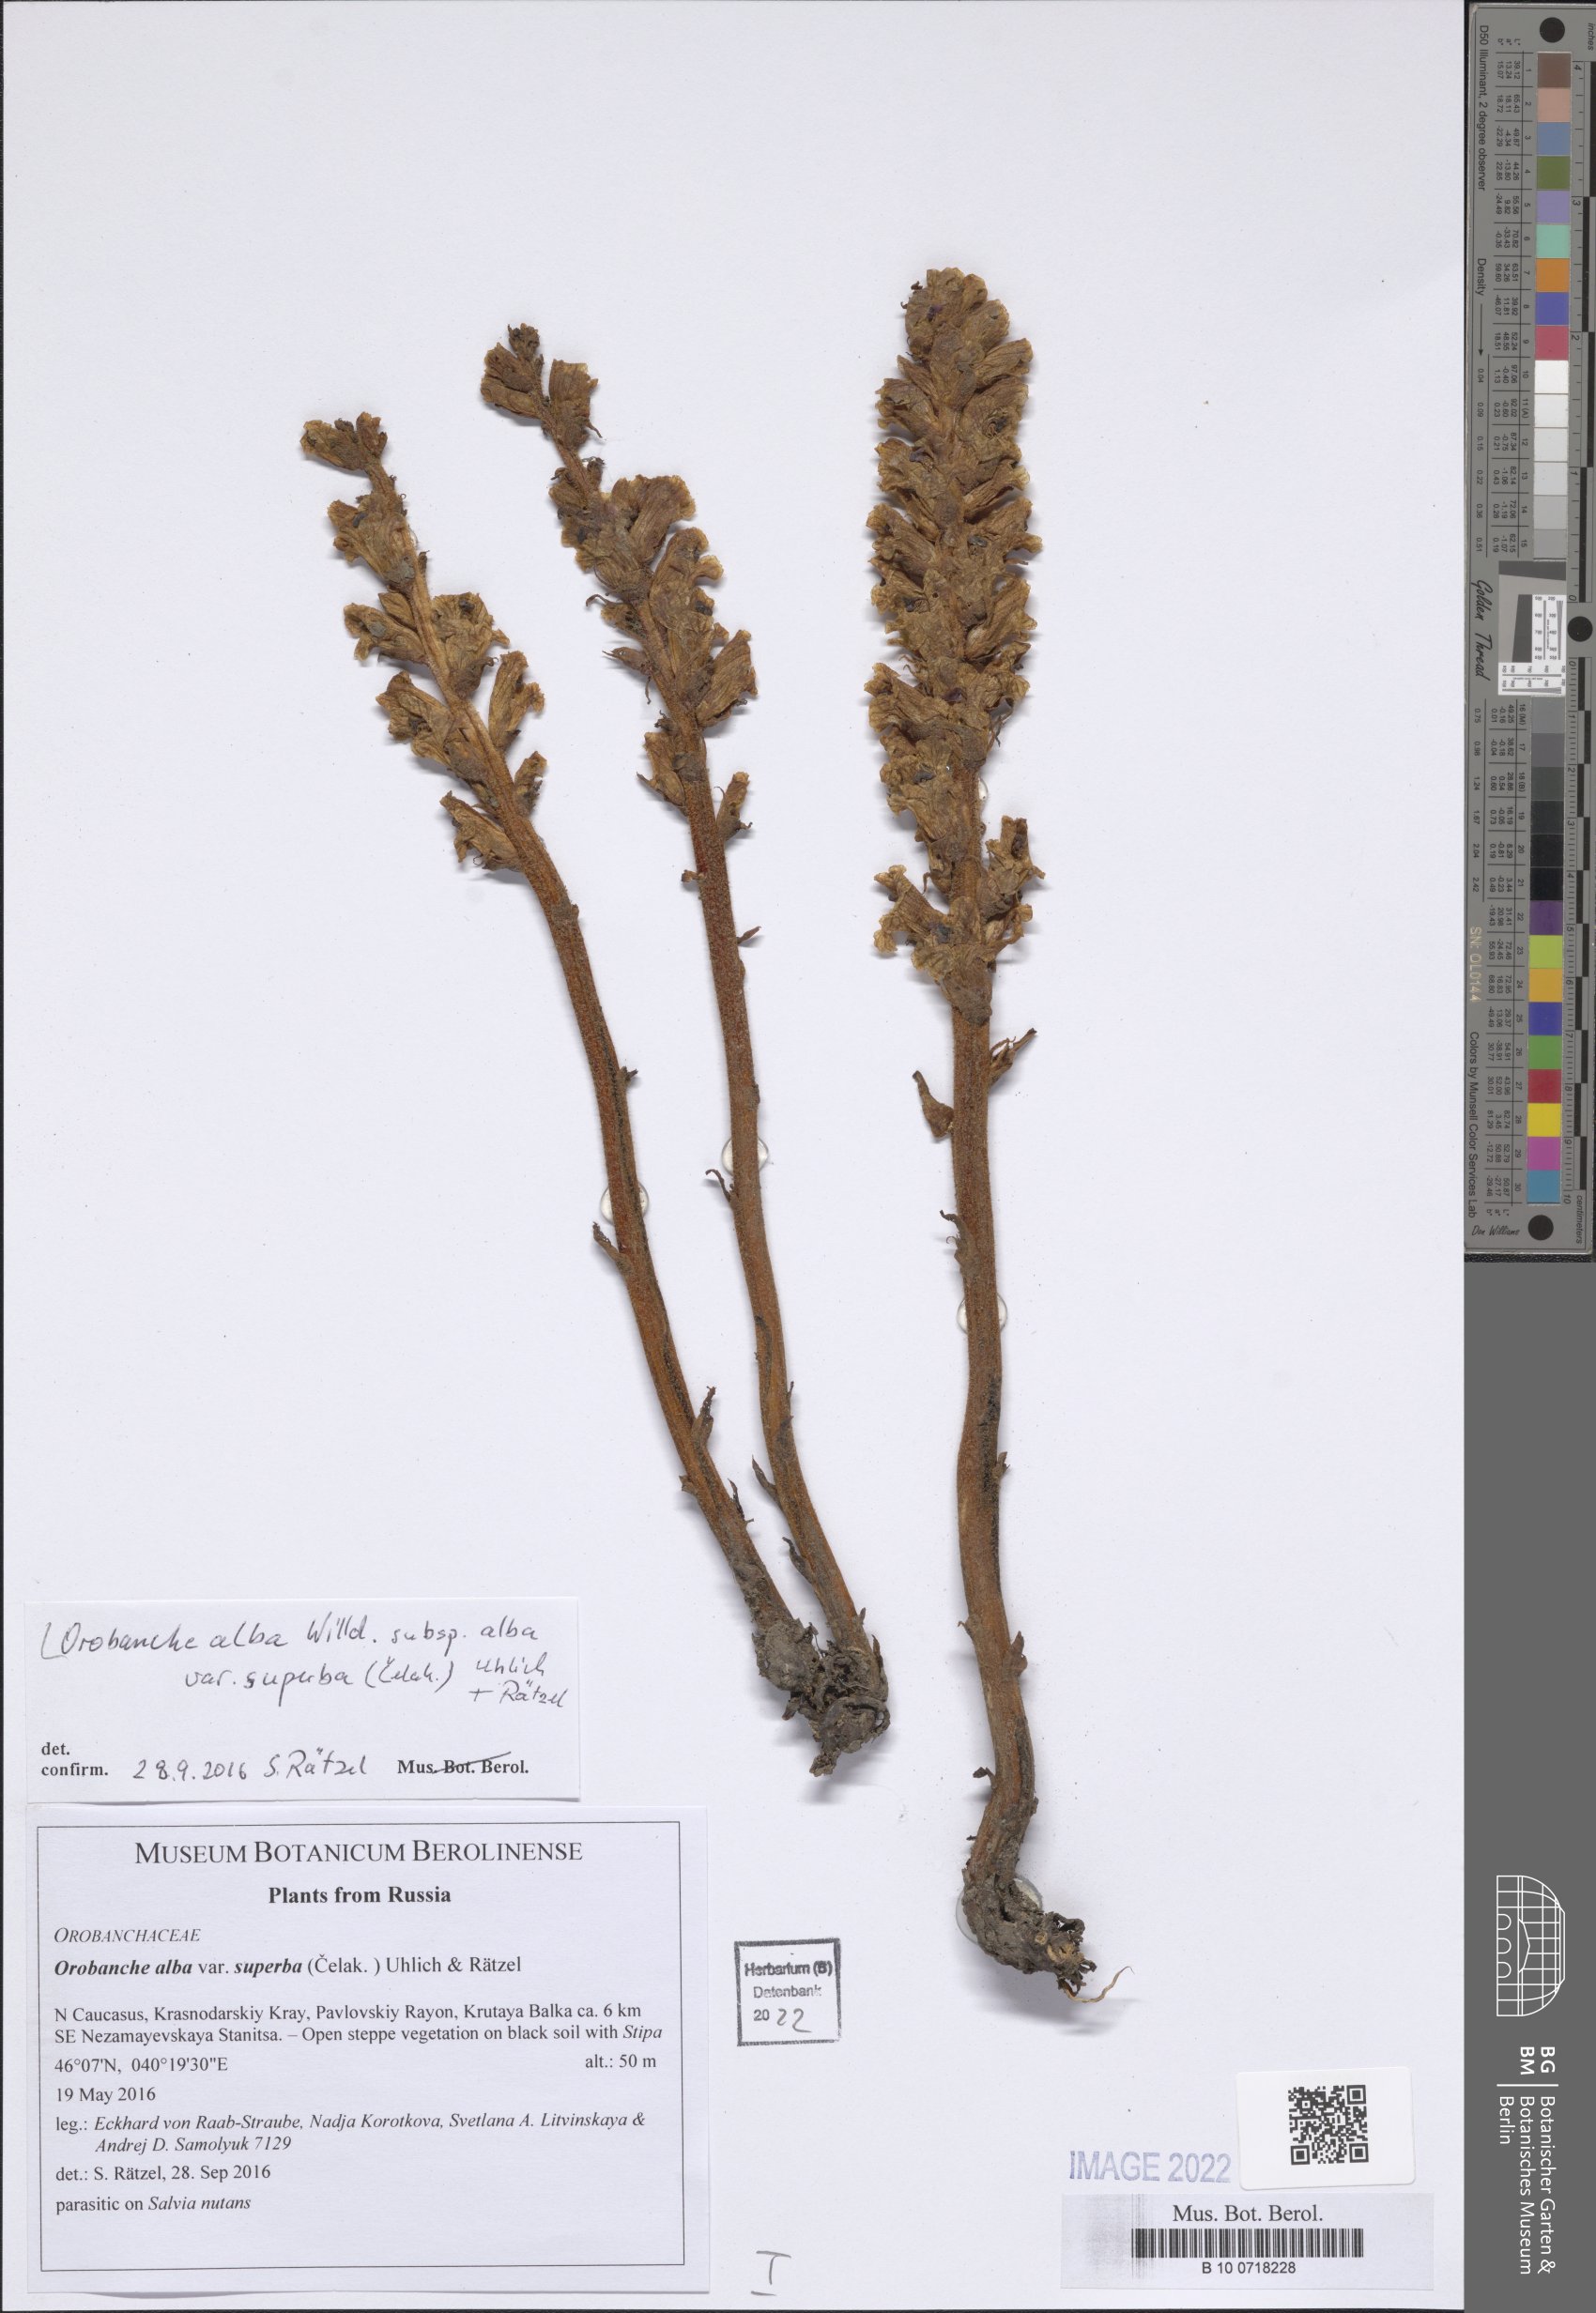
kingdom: Plantae
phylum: Tracheophyta
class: Magnoliopsida
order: Lamiales
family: Orobanchaceae
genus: Orobanche
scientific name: Orobanche alba
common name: Thyme broomrape
